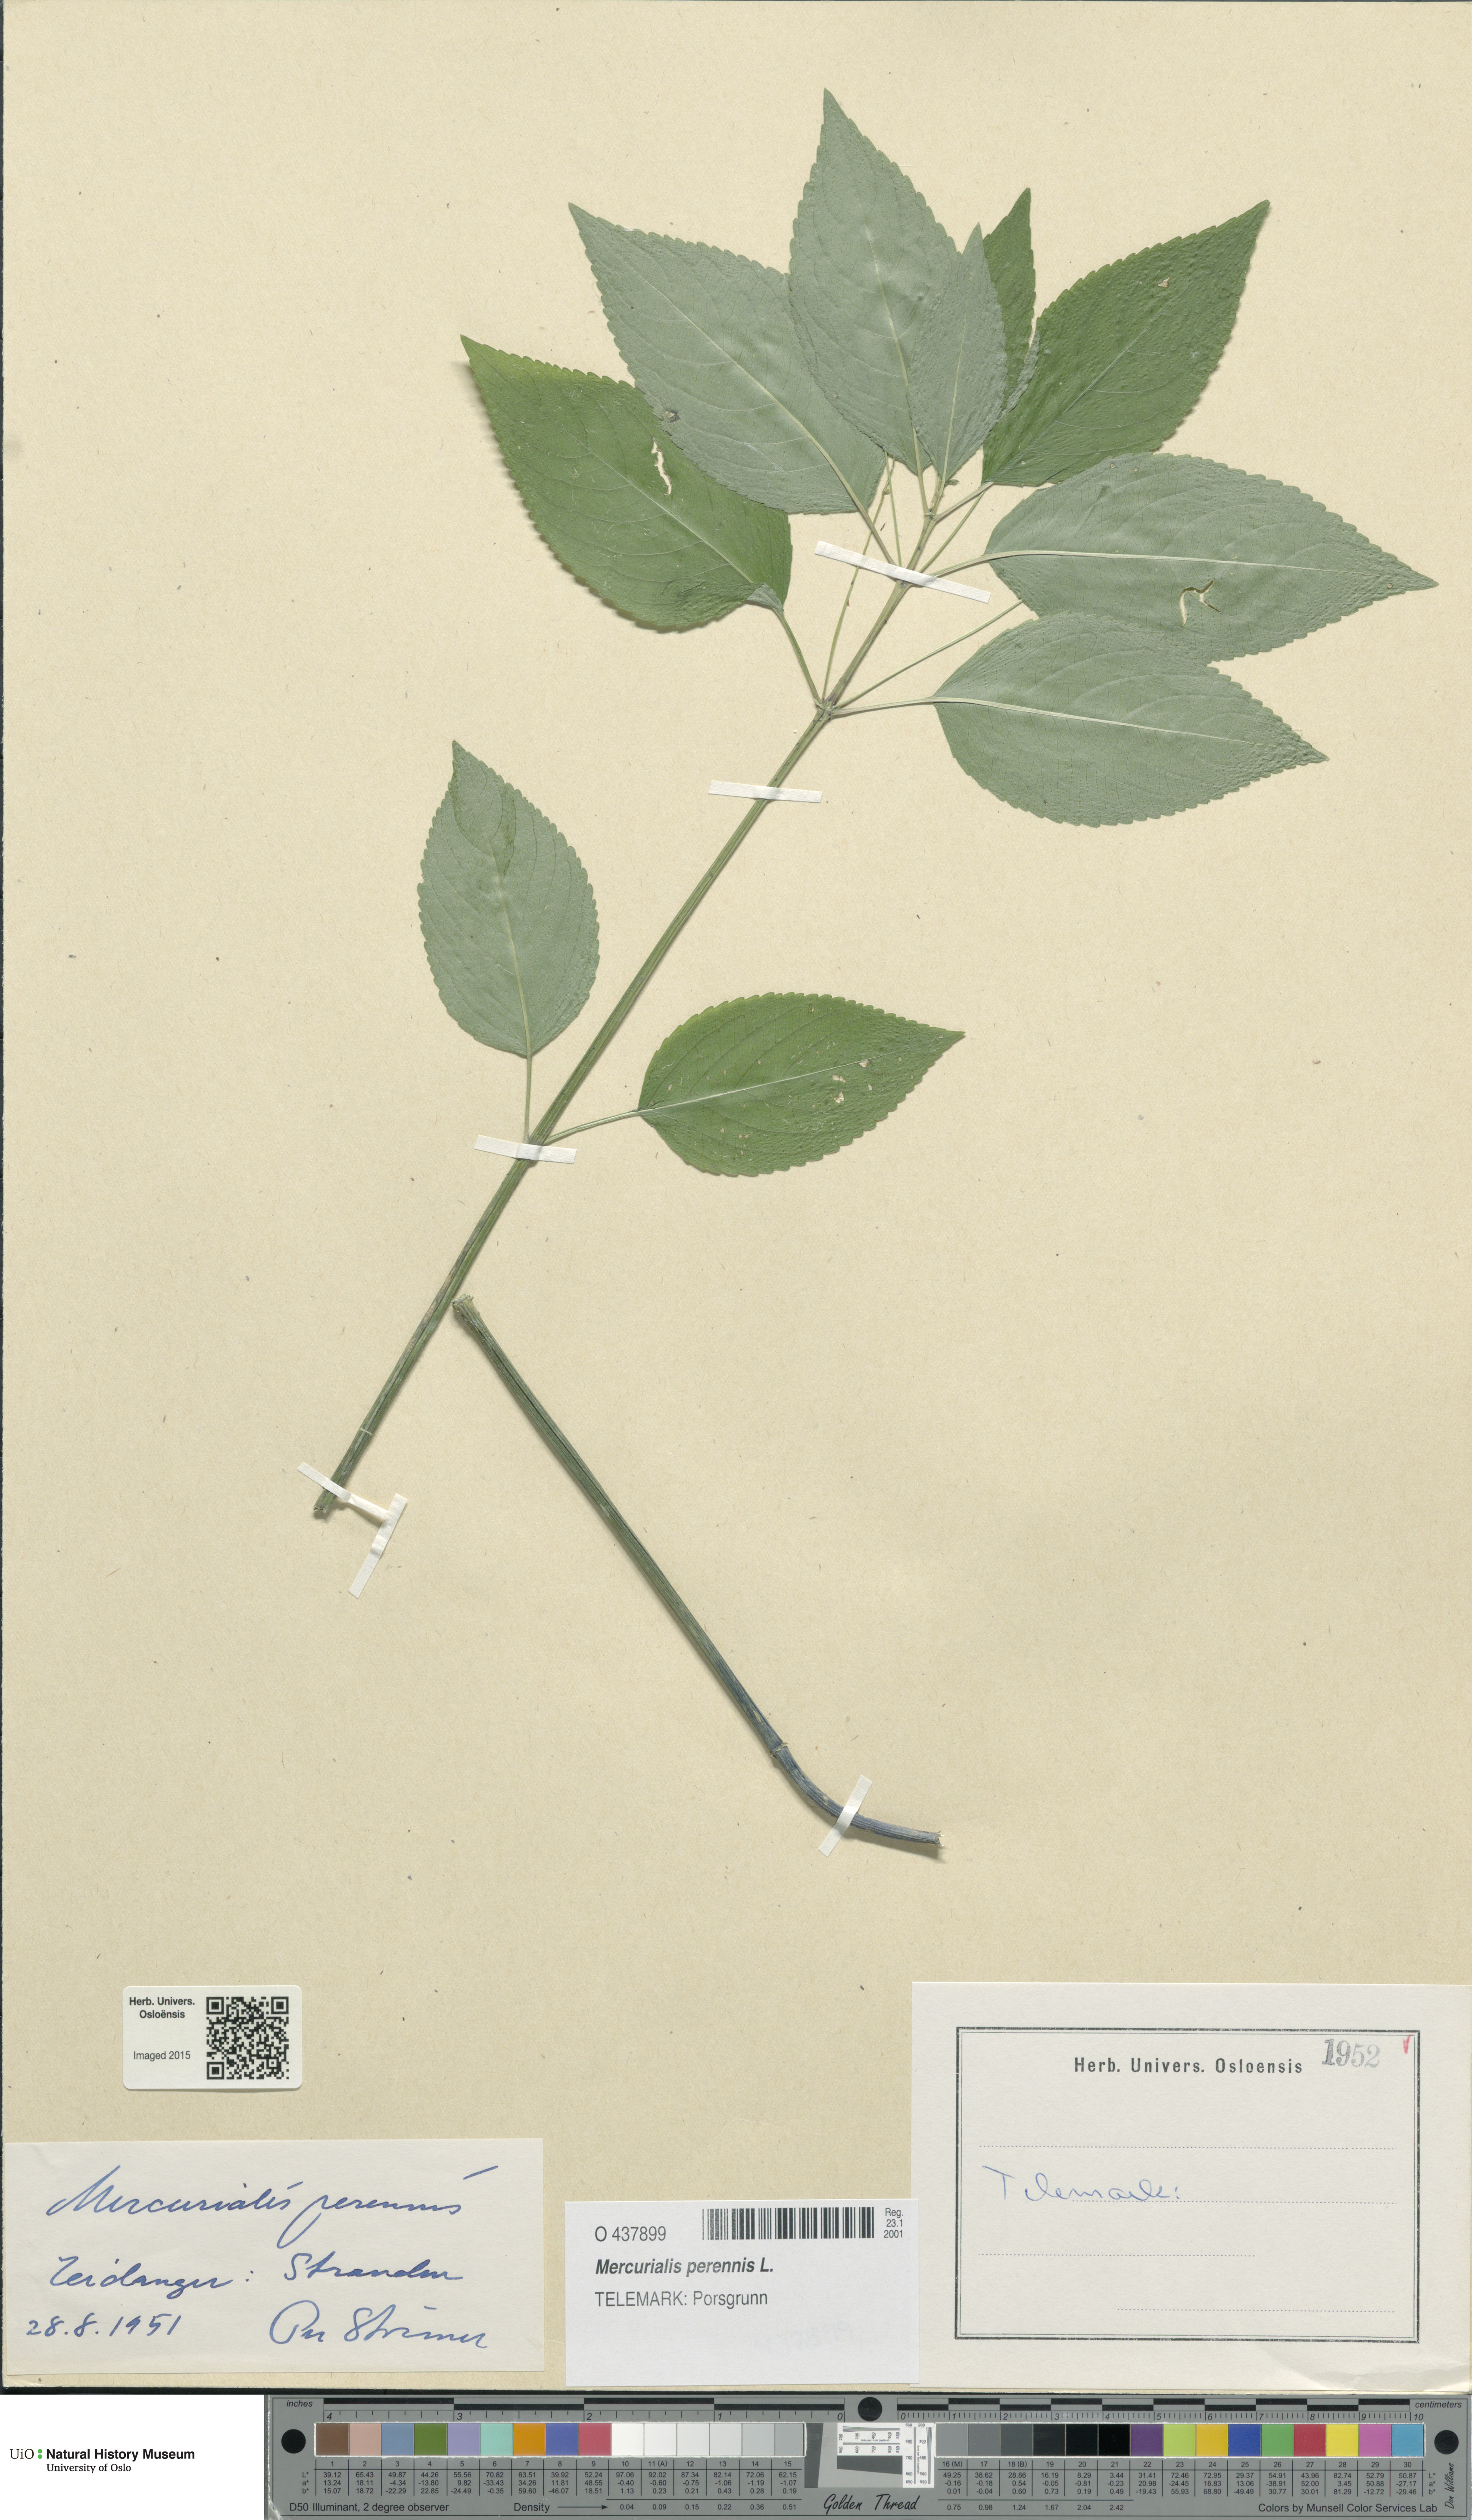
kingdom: Plantae
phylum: Tracheophyta
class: Magnoliopsida
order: Malpighiales
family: Euphorbiaceae
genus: Mercurialis
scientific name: Mercurialis perennis
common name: Dog mercury
